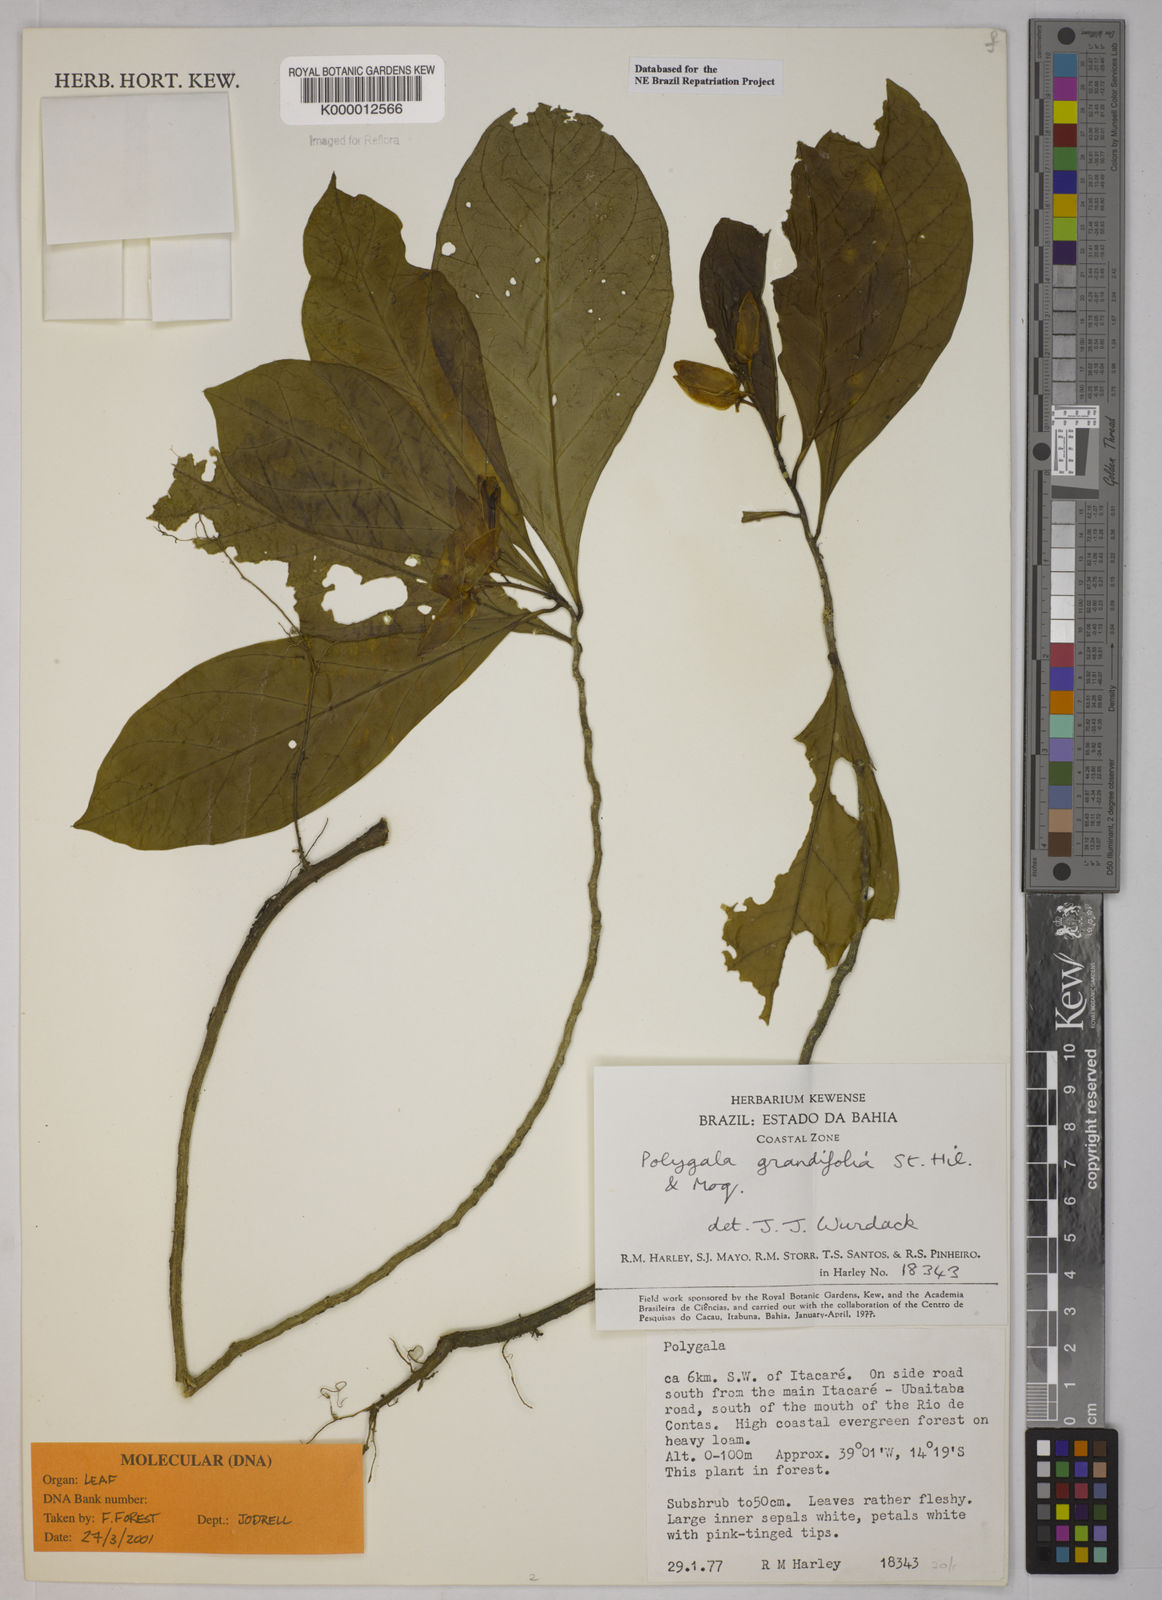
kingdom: Plantae
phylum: Tracheophyta
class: Magnoliopsida
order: Fabales
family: Polygalaceae
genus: Caamembeca
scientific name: Caamembeca grandifolia
